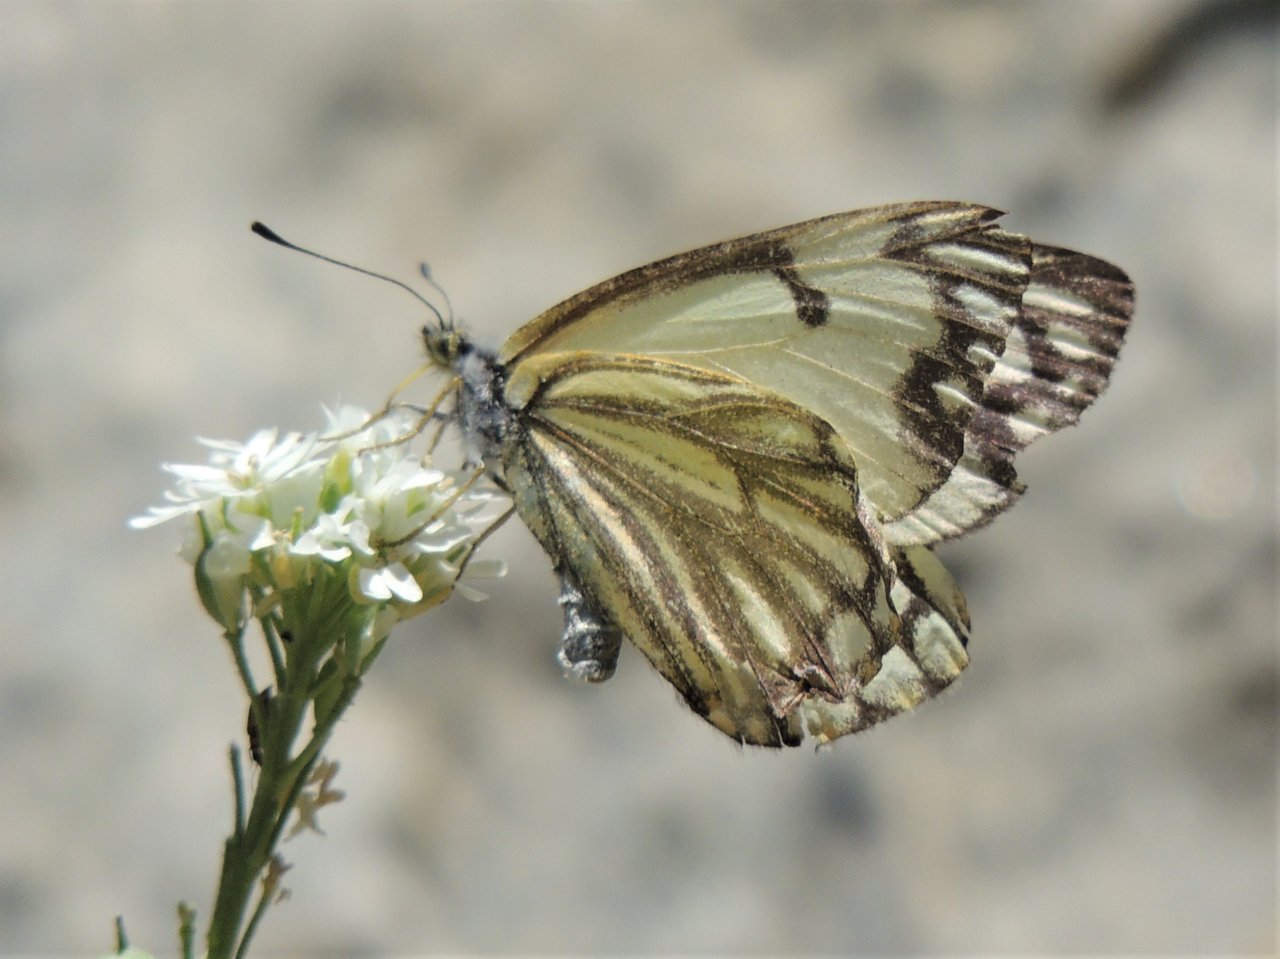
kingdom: Animalia
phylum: Arthropoda
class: Insecta
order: Lepidoptera
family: Pieridae
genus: Neophasia
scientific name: Neophasia menapia
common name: Pine White
